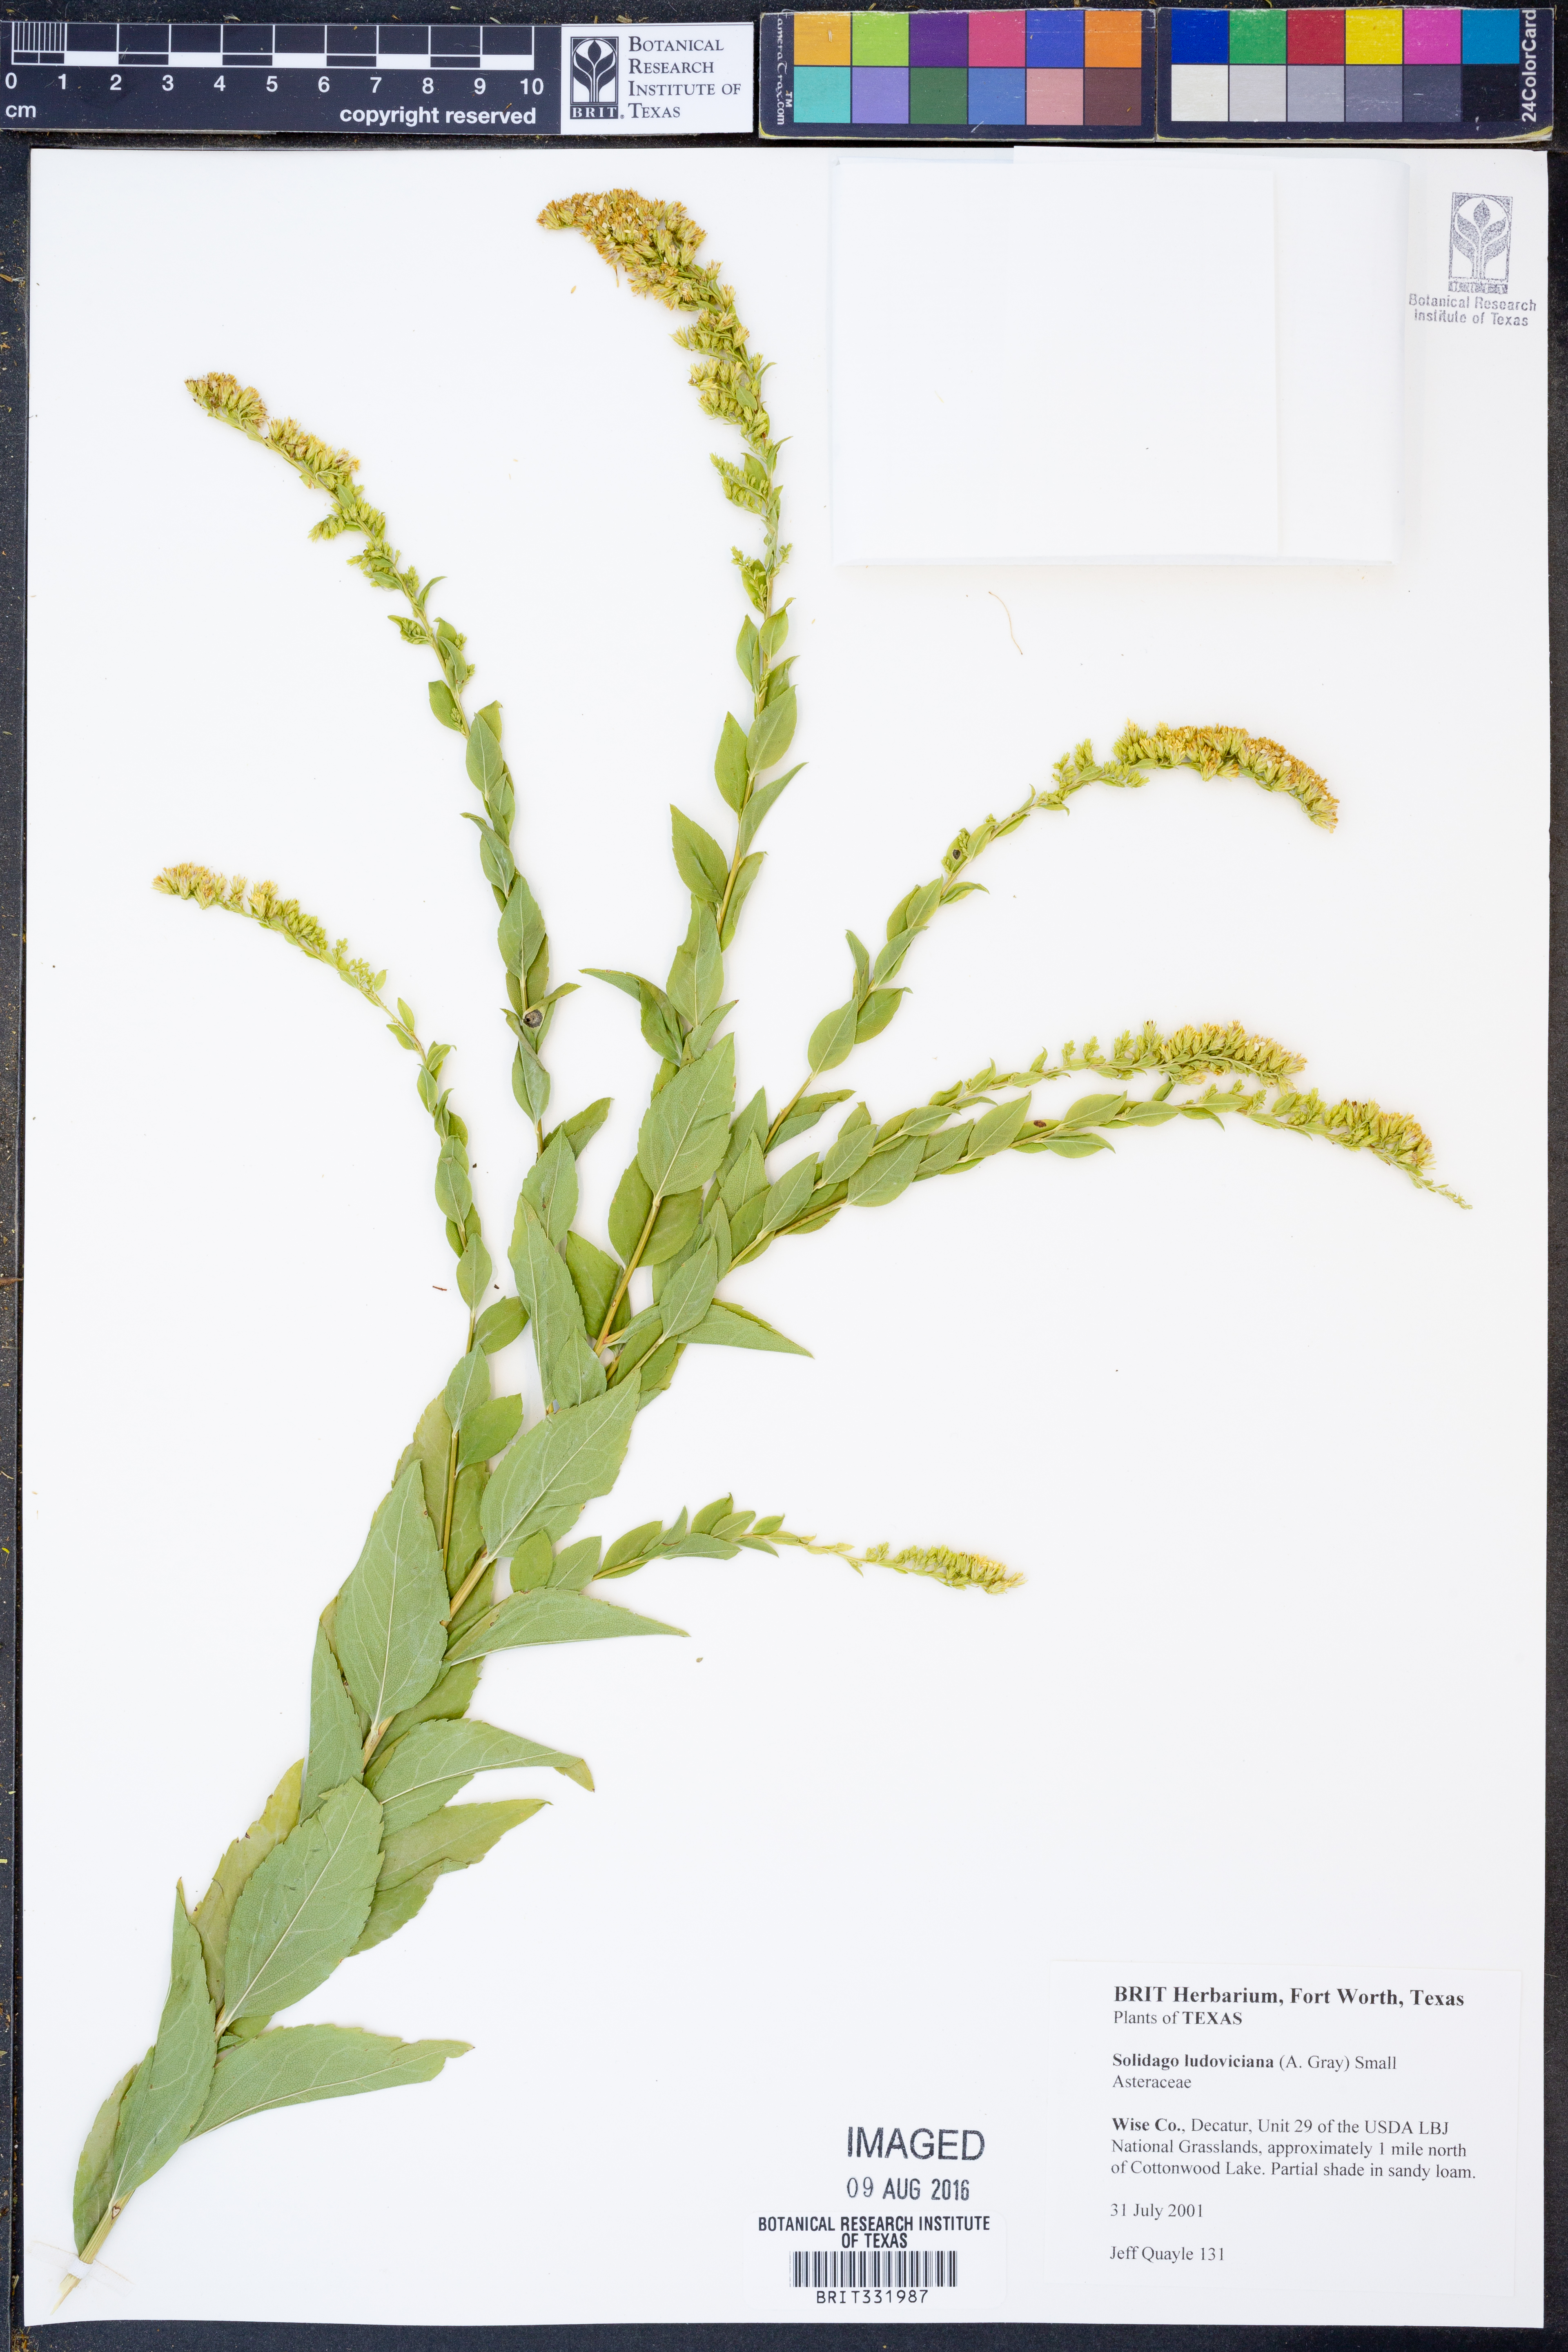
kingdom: Plantae
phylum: Tracheophyta
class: Magnoliopsida
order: Asterales
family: Asteraceae
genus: Solidago
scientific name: Solidago ludoviciana
